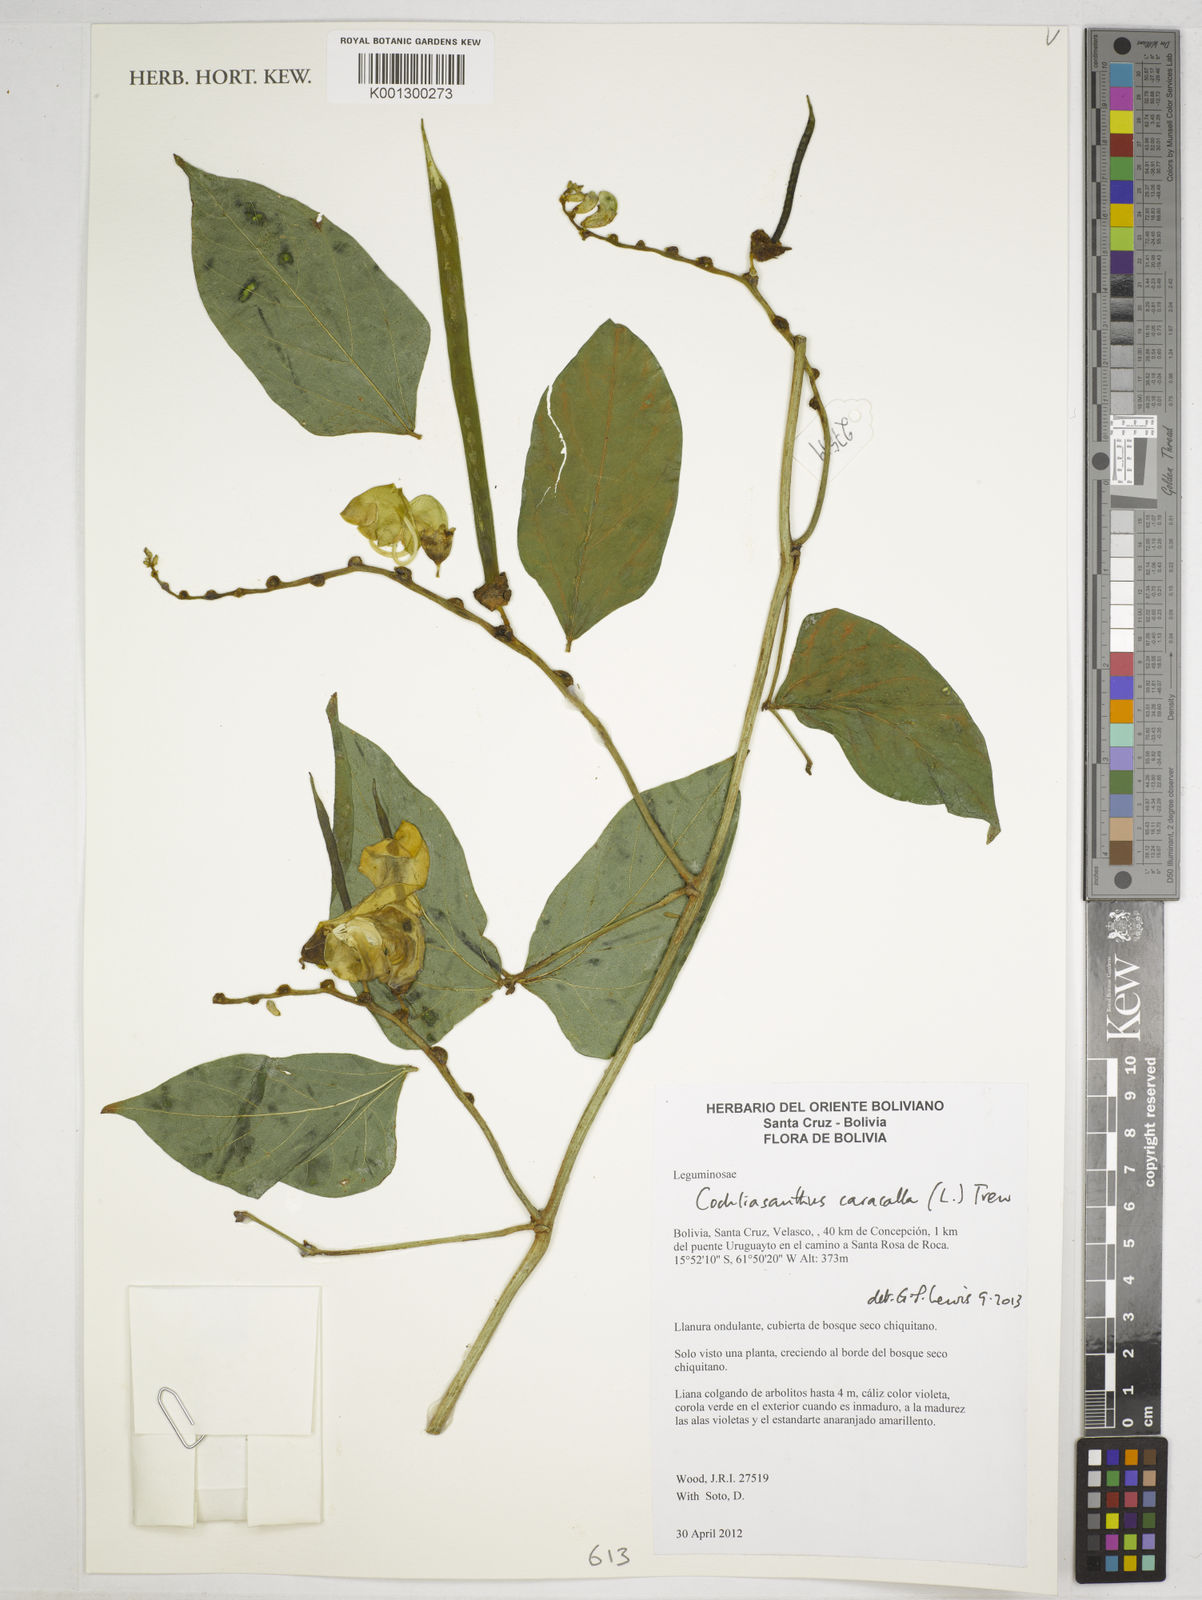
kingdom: Plantae
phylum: Tracheophyta
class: Magnoliopsida
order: Fabales
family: Fabaceae
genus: Cochliasanthus
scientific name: Cochliasanthus caracalla
